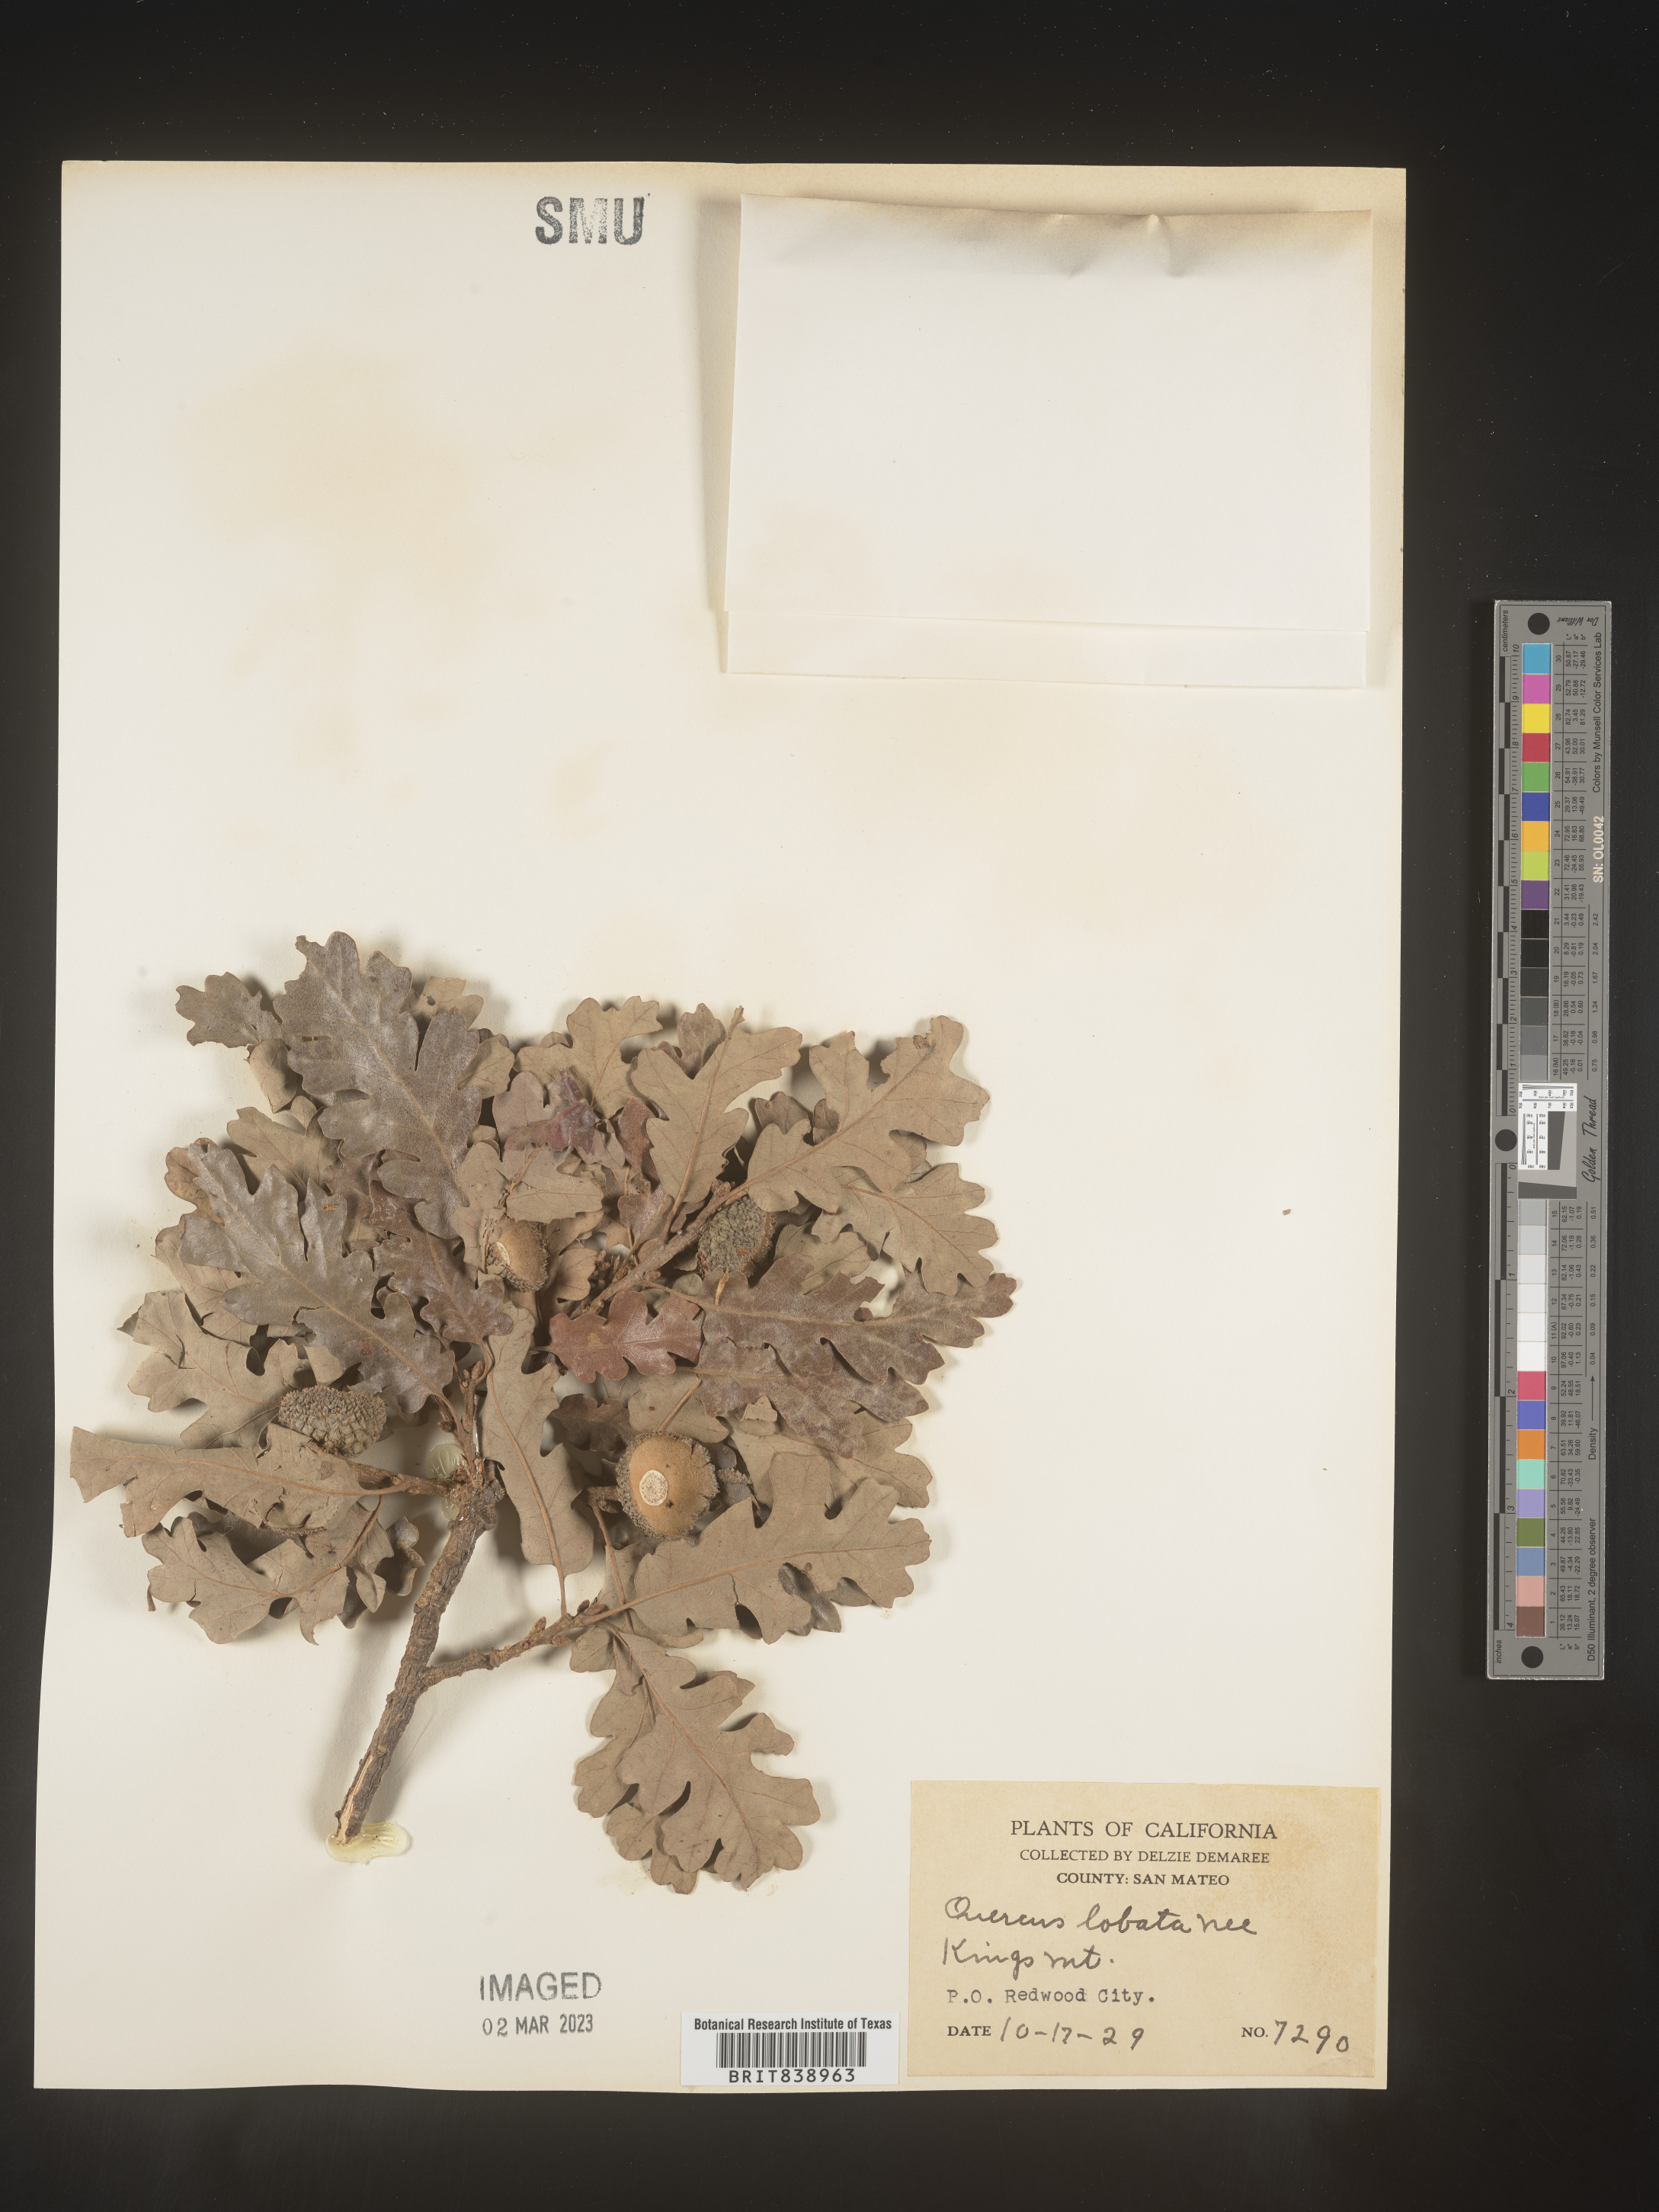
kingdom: Plantae
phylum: Tracheophyta
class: Magnoliopsida
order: Fagales
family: Fagaceae
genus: Quercus
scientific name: Quercus
